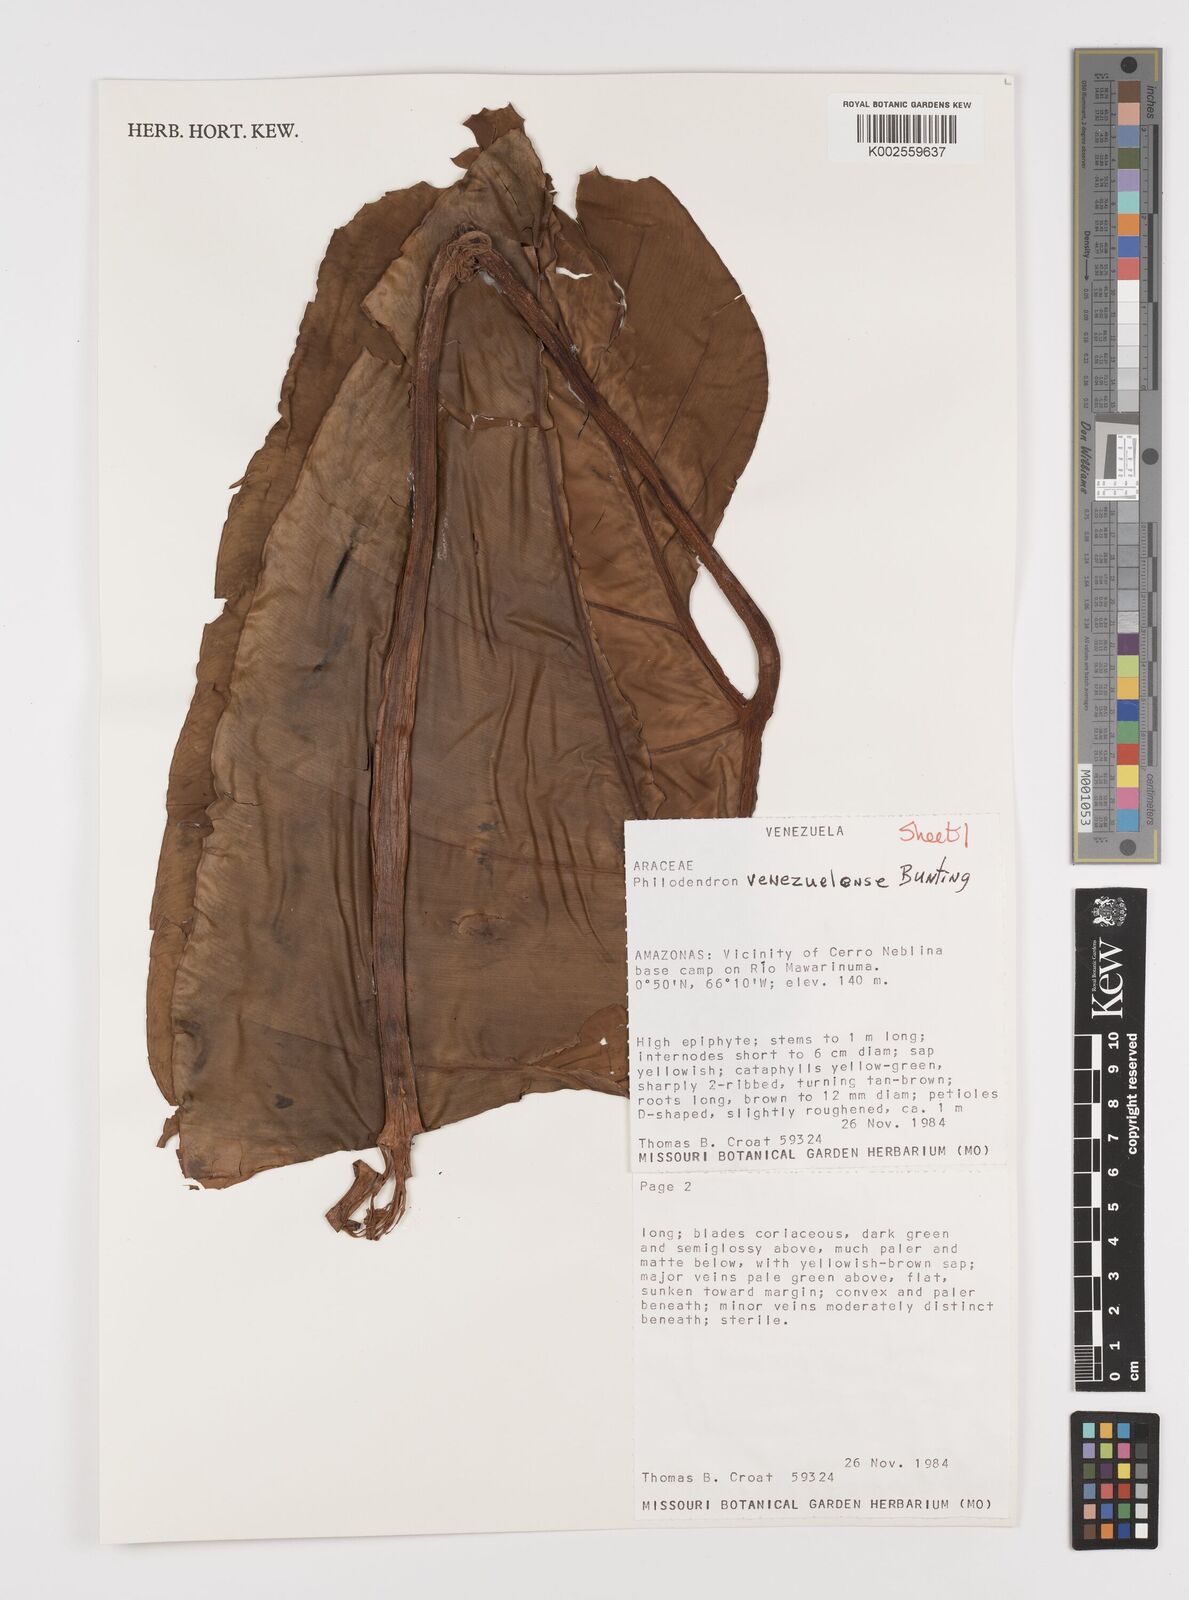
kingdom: Plantae
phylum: Tracheophyta
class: Liliopsida
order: Alismatales
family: Araceae
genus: Thaumatophyllum
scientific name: Thaumatophyllum venezuelense
